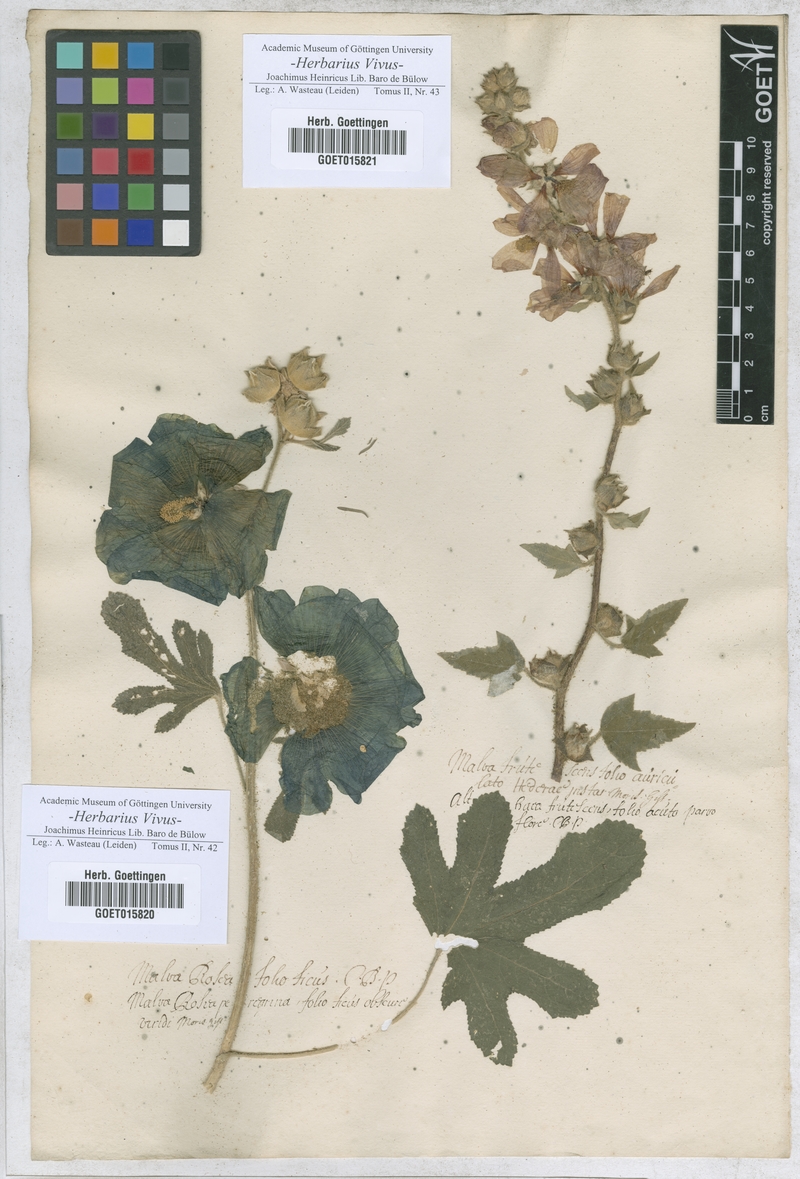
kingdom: Plantae
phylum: Tracheophyta
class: Magnoliopsida
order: Malvales
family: Malvaceae
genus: Malva
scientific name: Malva sylvestris
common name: Common mallow
